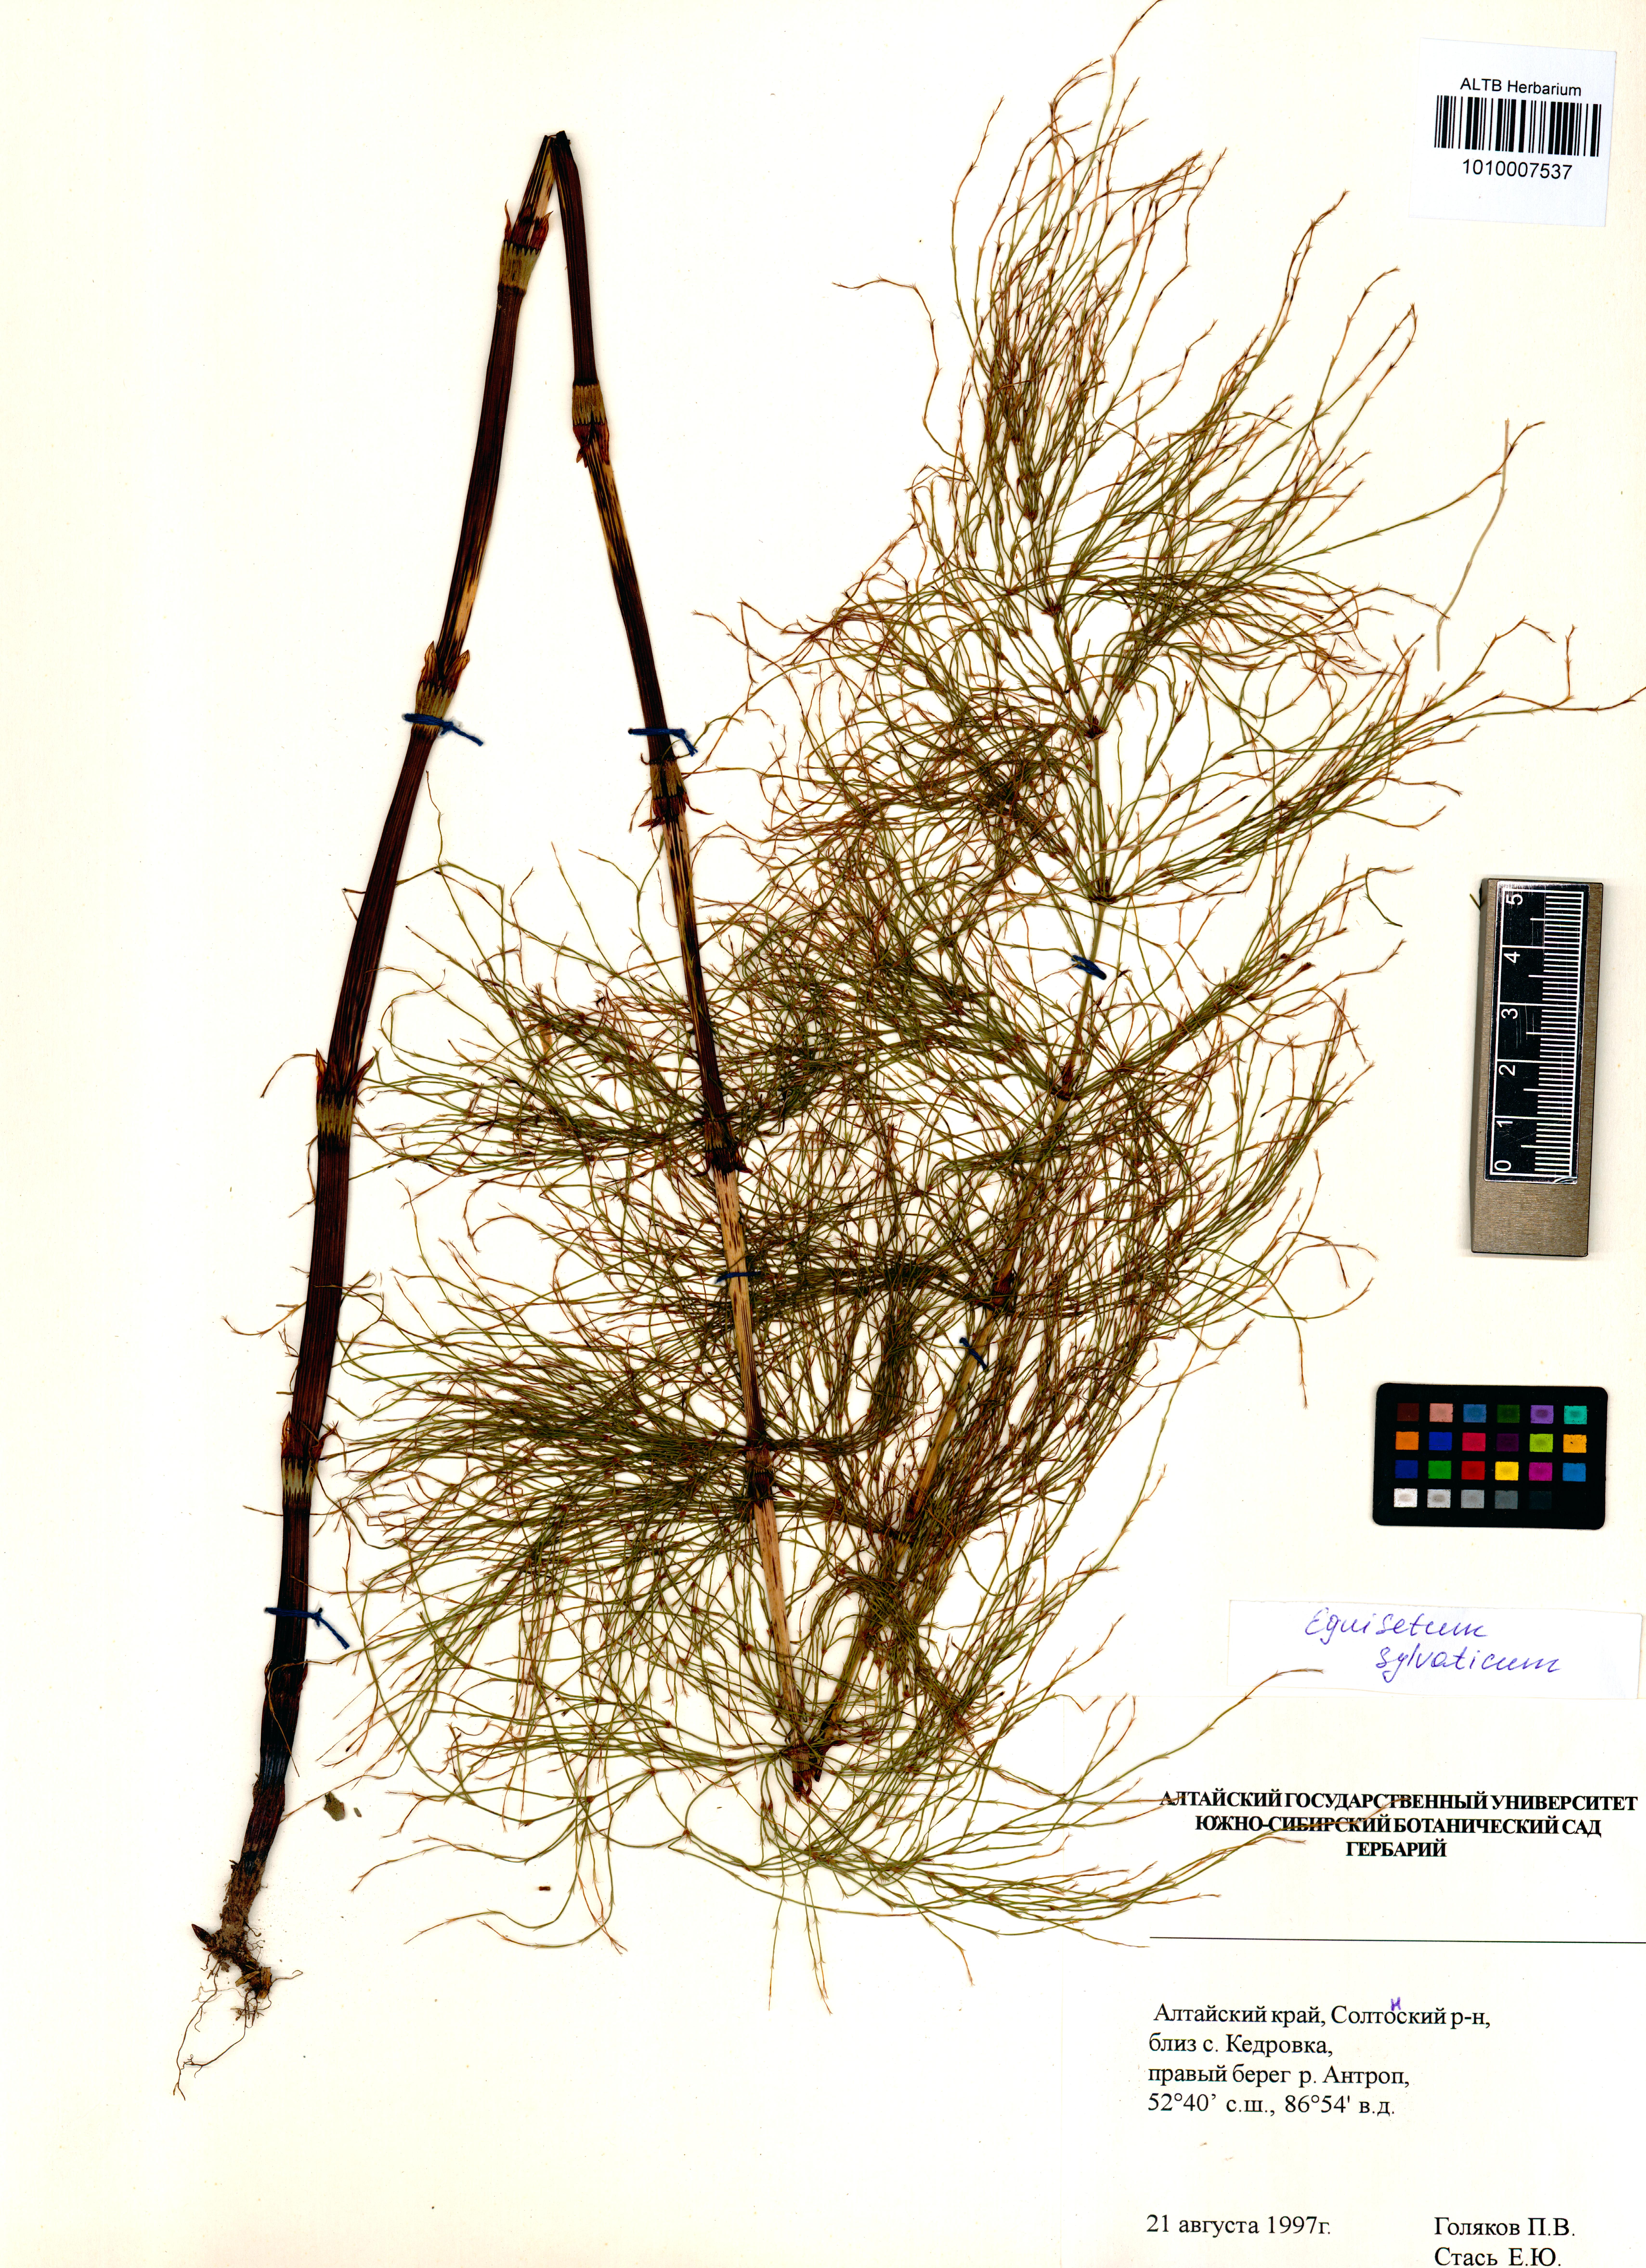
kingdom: Plantae
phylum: Tracheophyta
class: Polypodiopsida
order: Equisetales
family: Equisetaceae
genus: Equisetum
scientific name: Equisetum sylvaticum
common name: Wood horsetail
